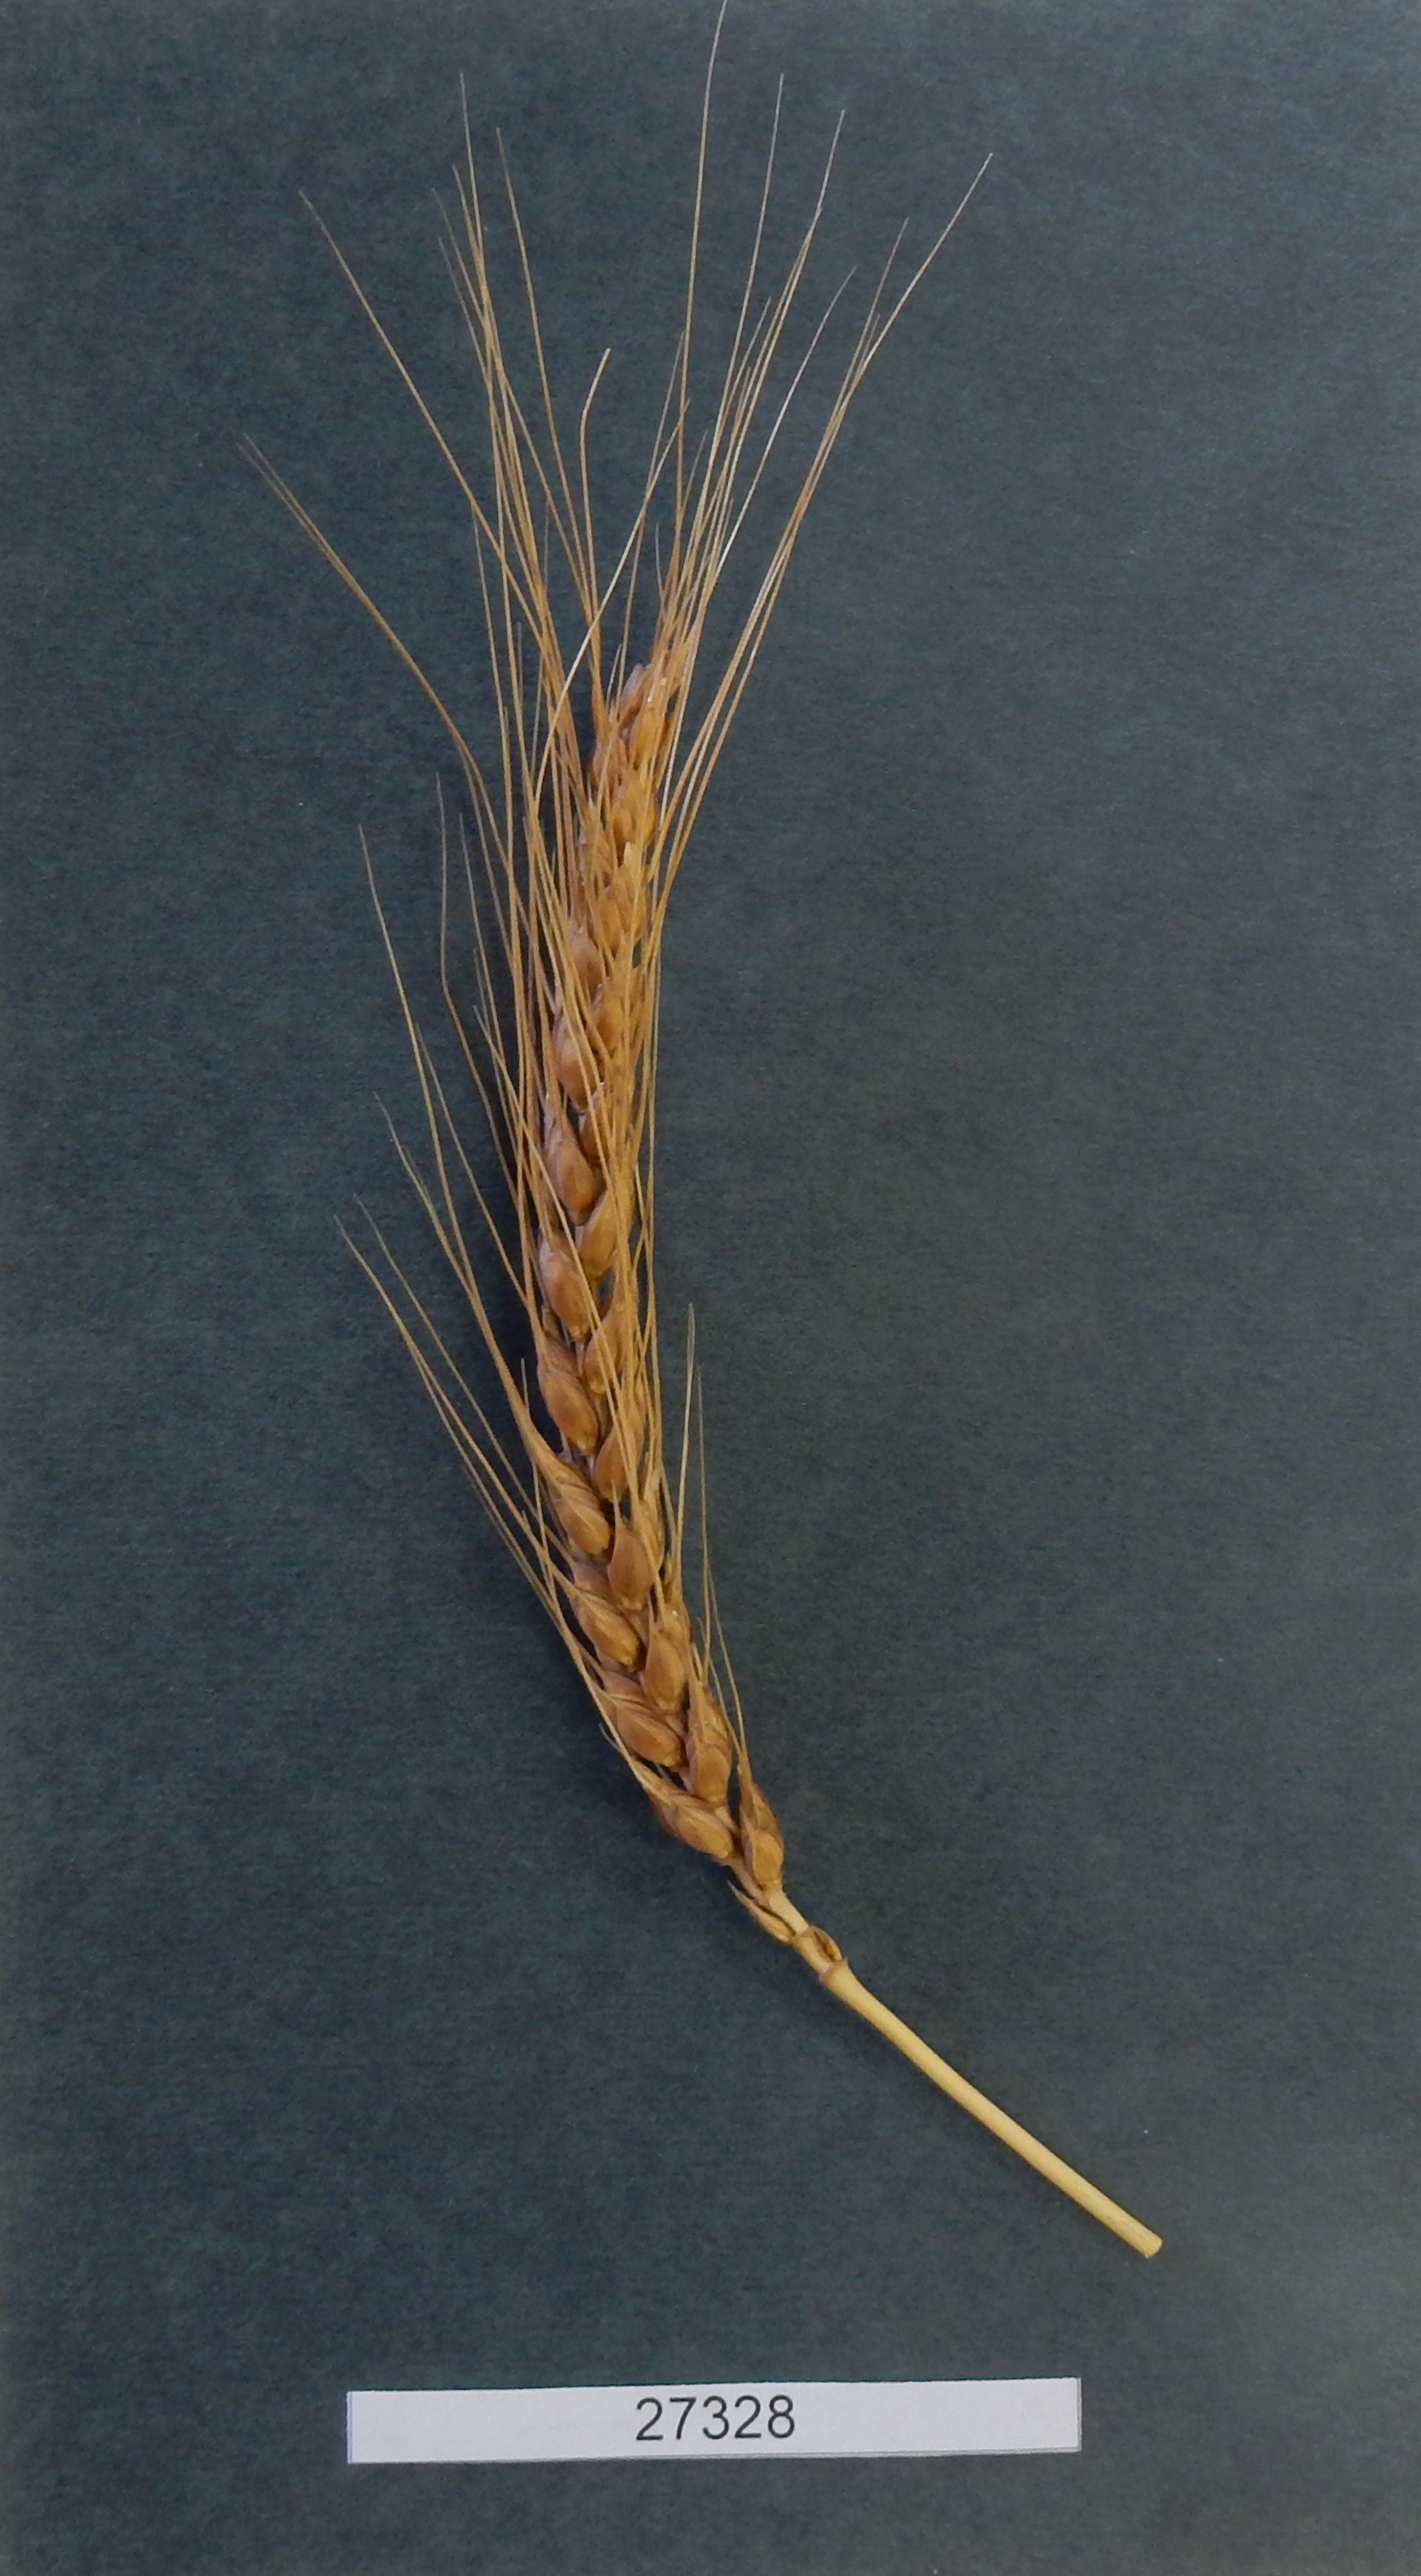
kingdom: Plantae
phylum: Tracheophyta
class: Liliopsida
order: Poales
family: Poaceae
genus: Triticum
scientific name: Triticum aestivum
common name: Common wheat
